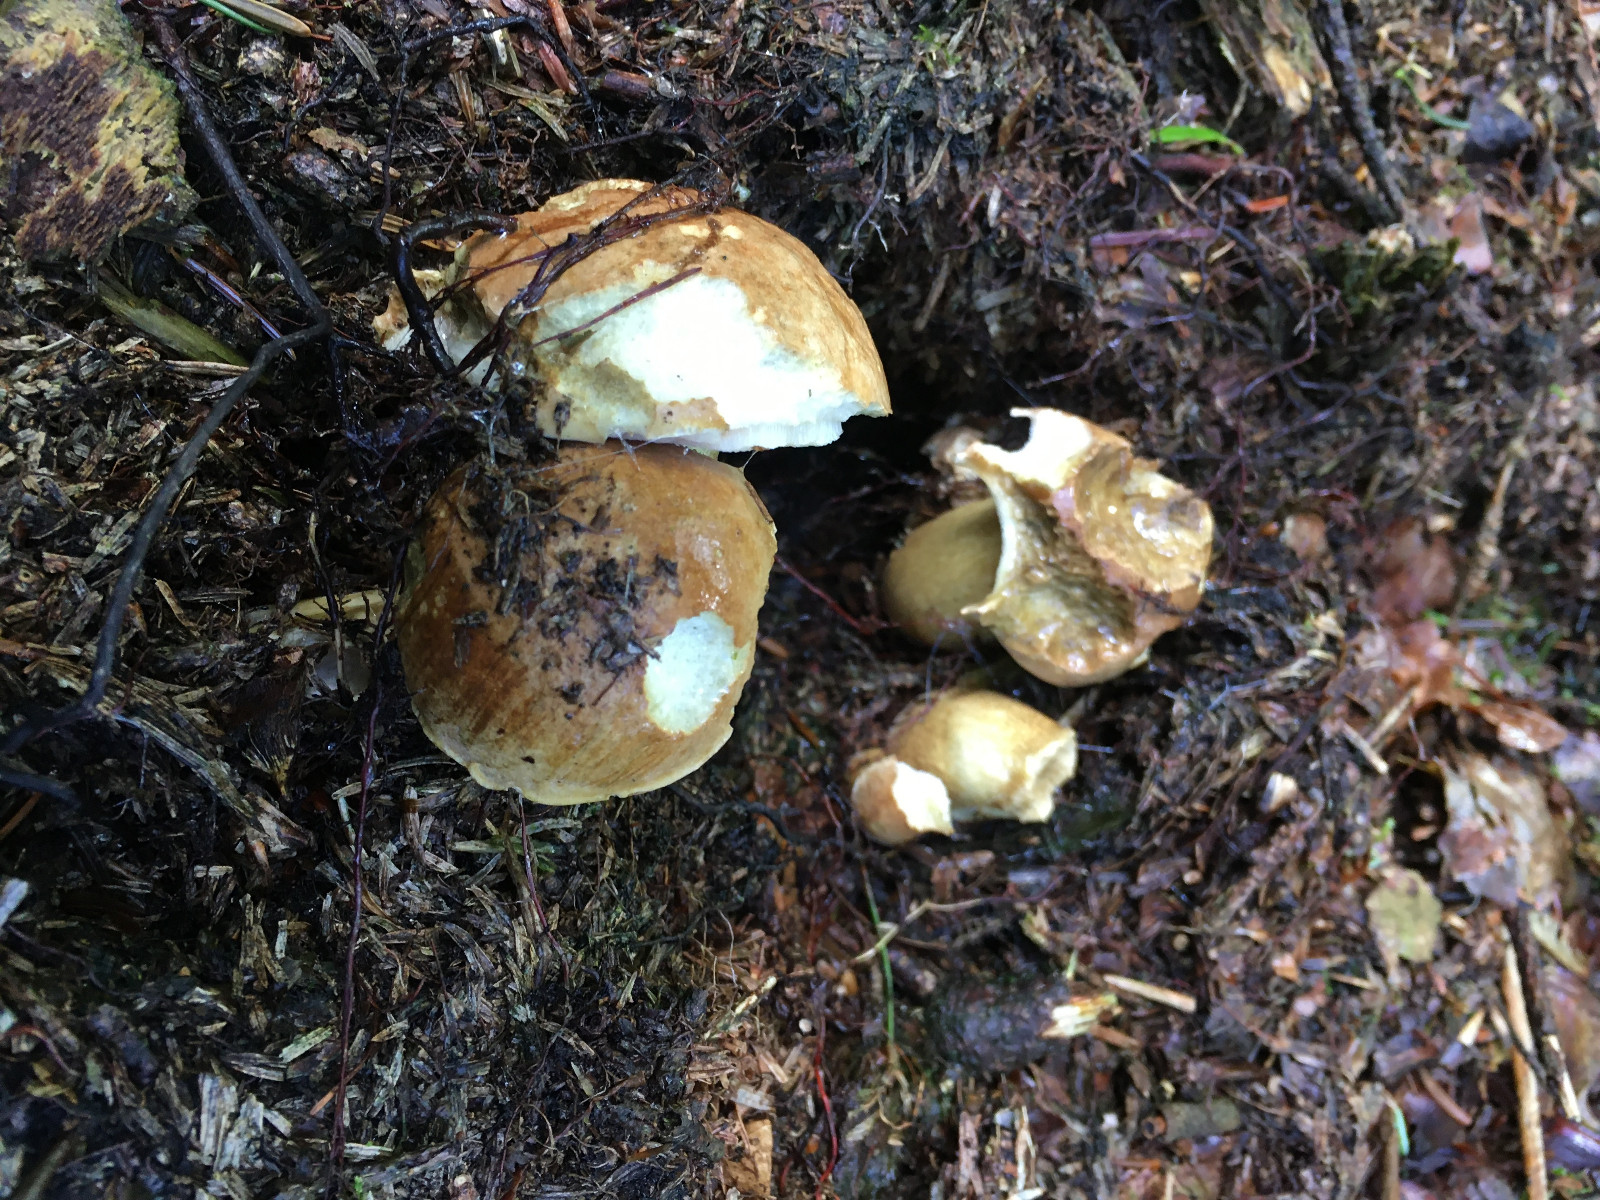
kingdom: Fungi
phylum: Basidiomycota
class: Agaricomycetes
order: Boletales
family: Boletaceae
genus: Tylopilus
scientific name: Tylopilus felleus
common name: galderørhat
